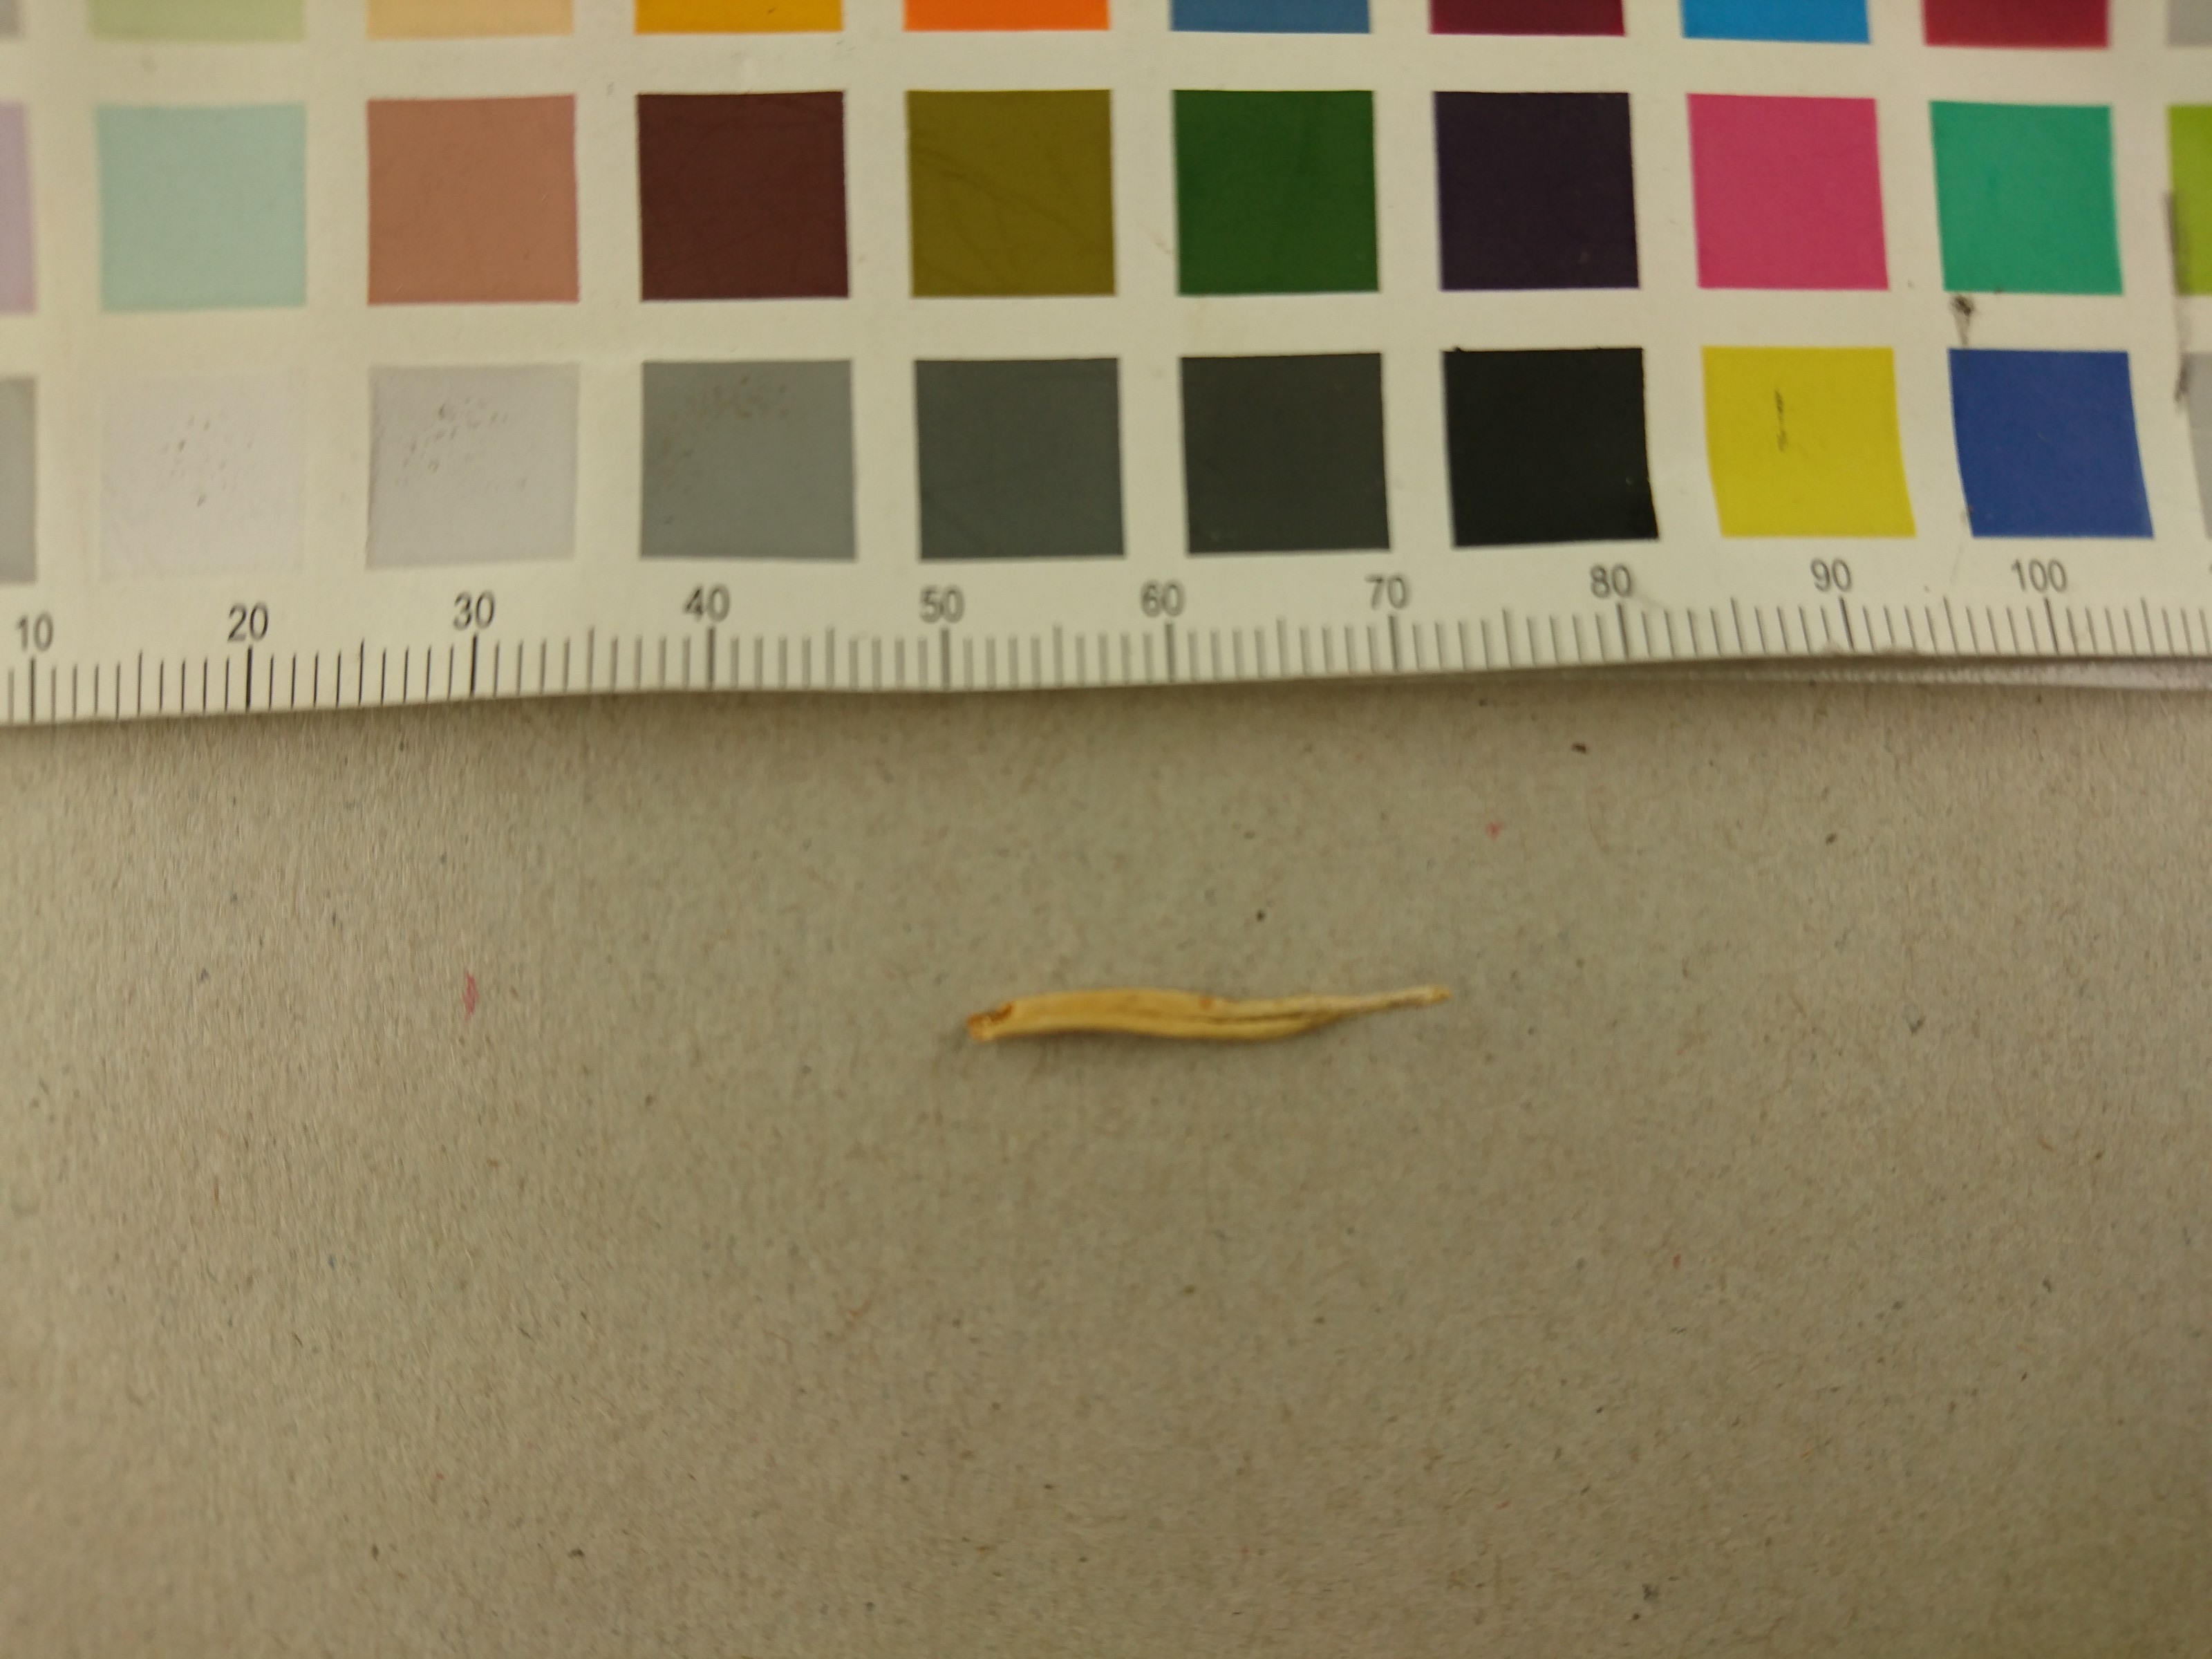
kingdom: Fungi
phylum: Basidiomycota
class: Agaricomycetes
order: Agaricales
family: Clavariaceae
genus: Clavulinopsis
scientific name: Clavulinopsis luteoalba
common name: Apricot club
